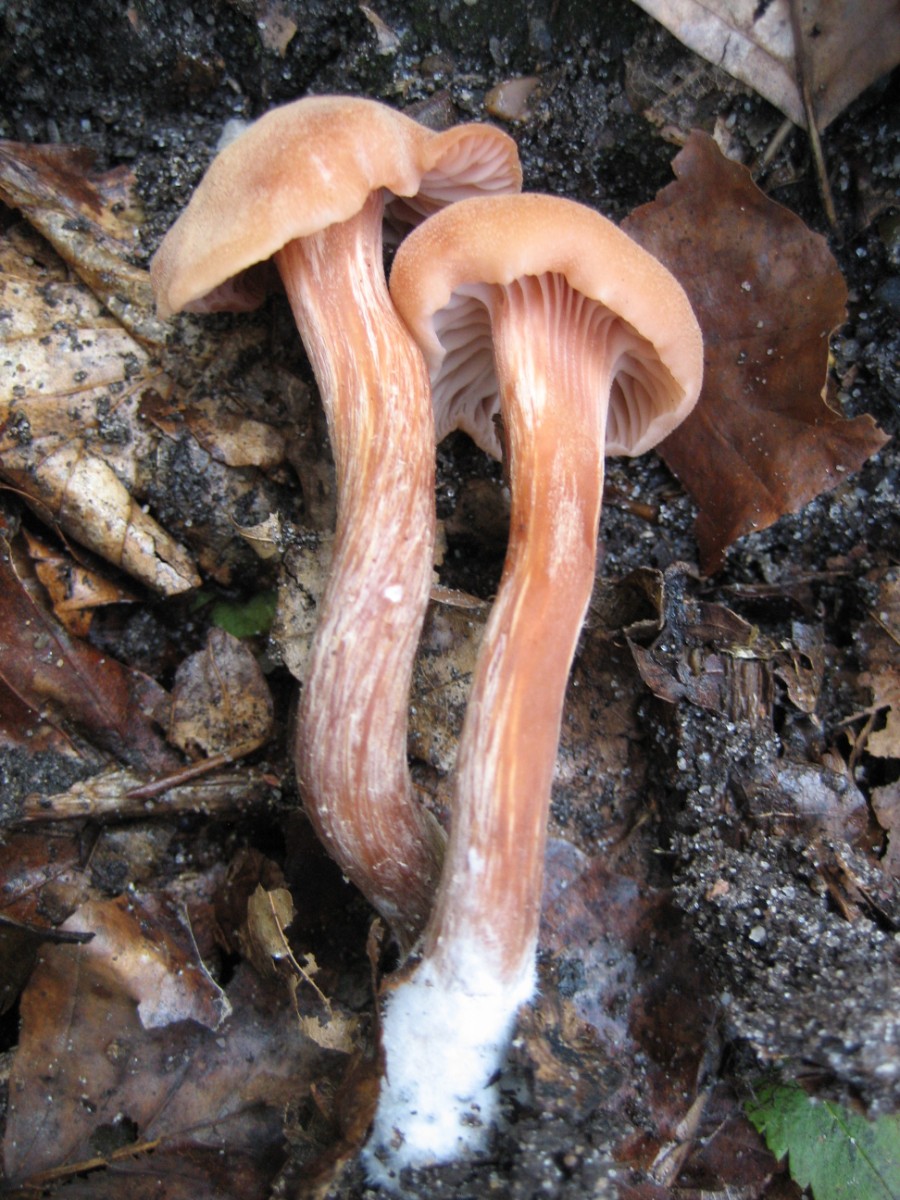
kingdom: Fungi
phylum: Basidiomycota
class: Agaricomycetes
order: Agaricales
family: Hydnangiaceae
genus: Laccaria
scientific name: Laccaria proxima
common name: stor ametysthat
